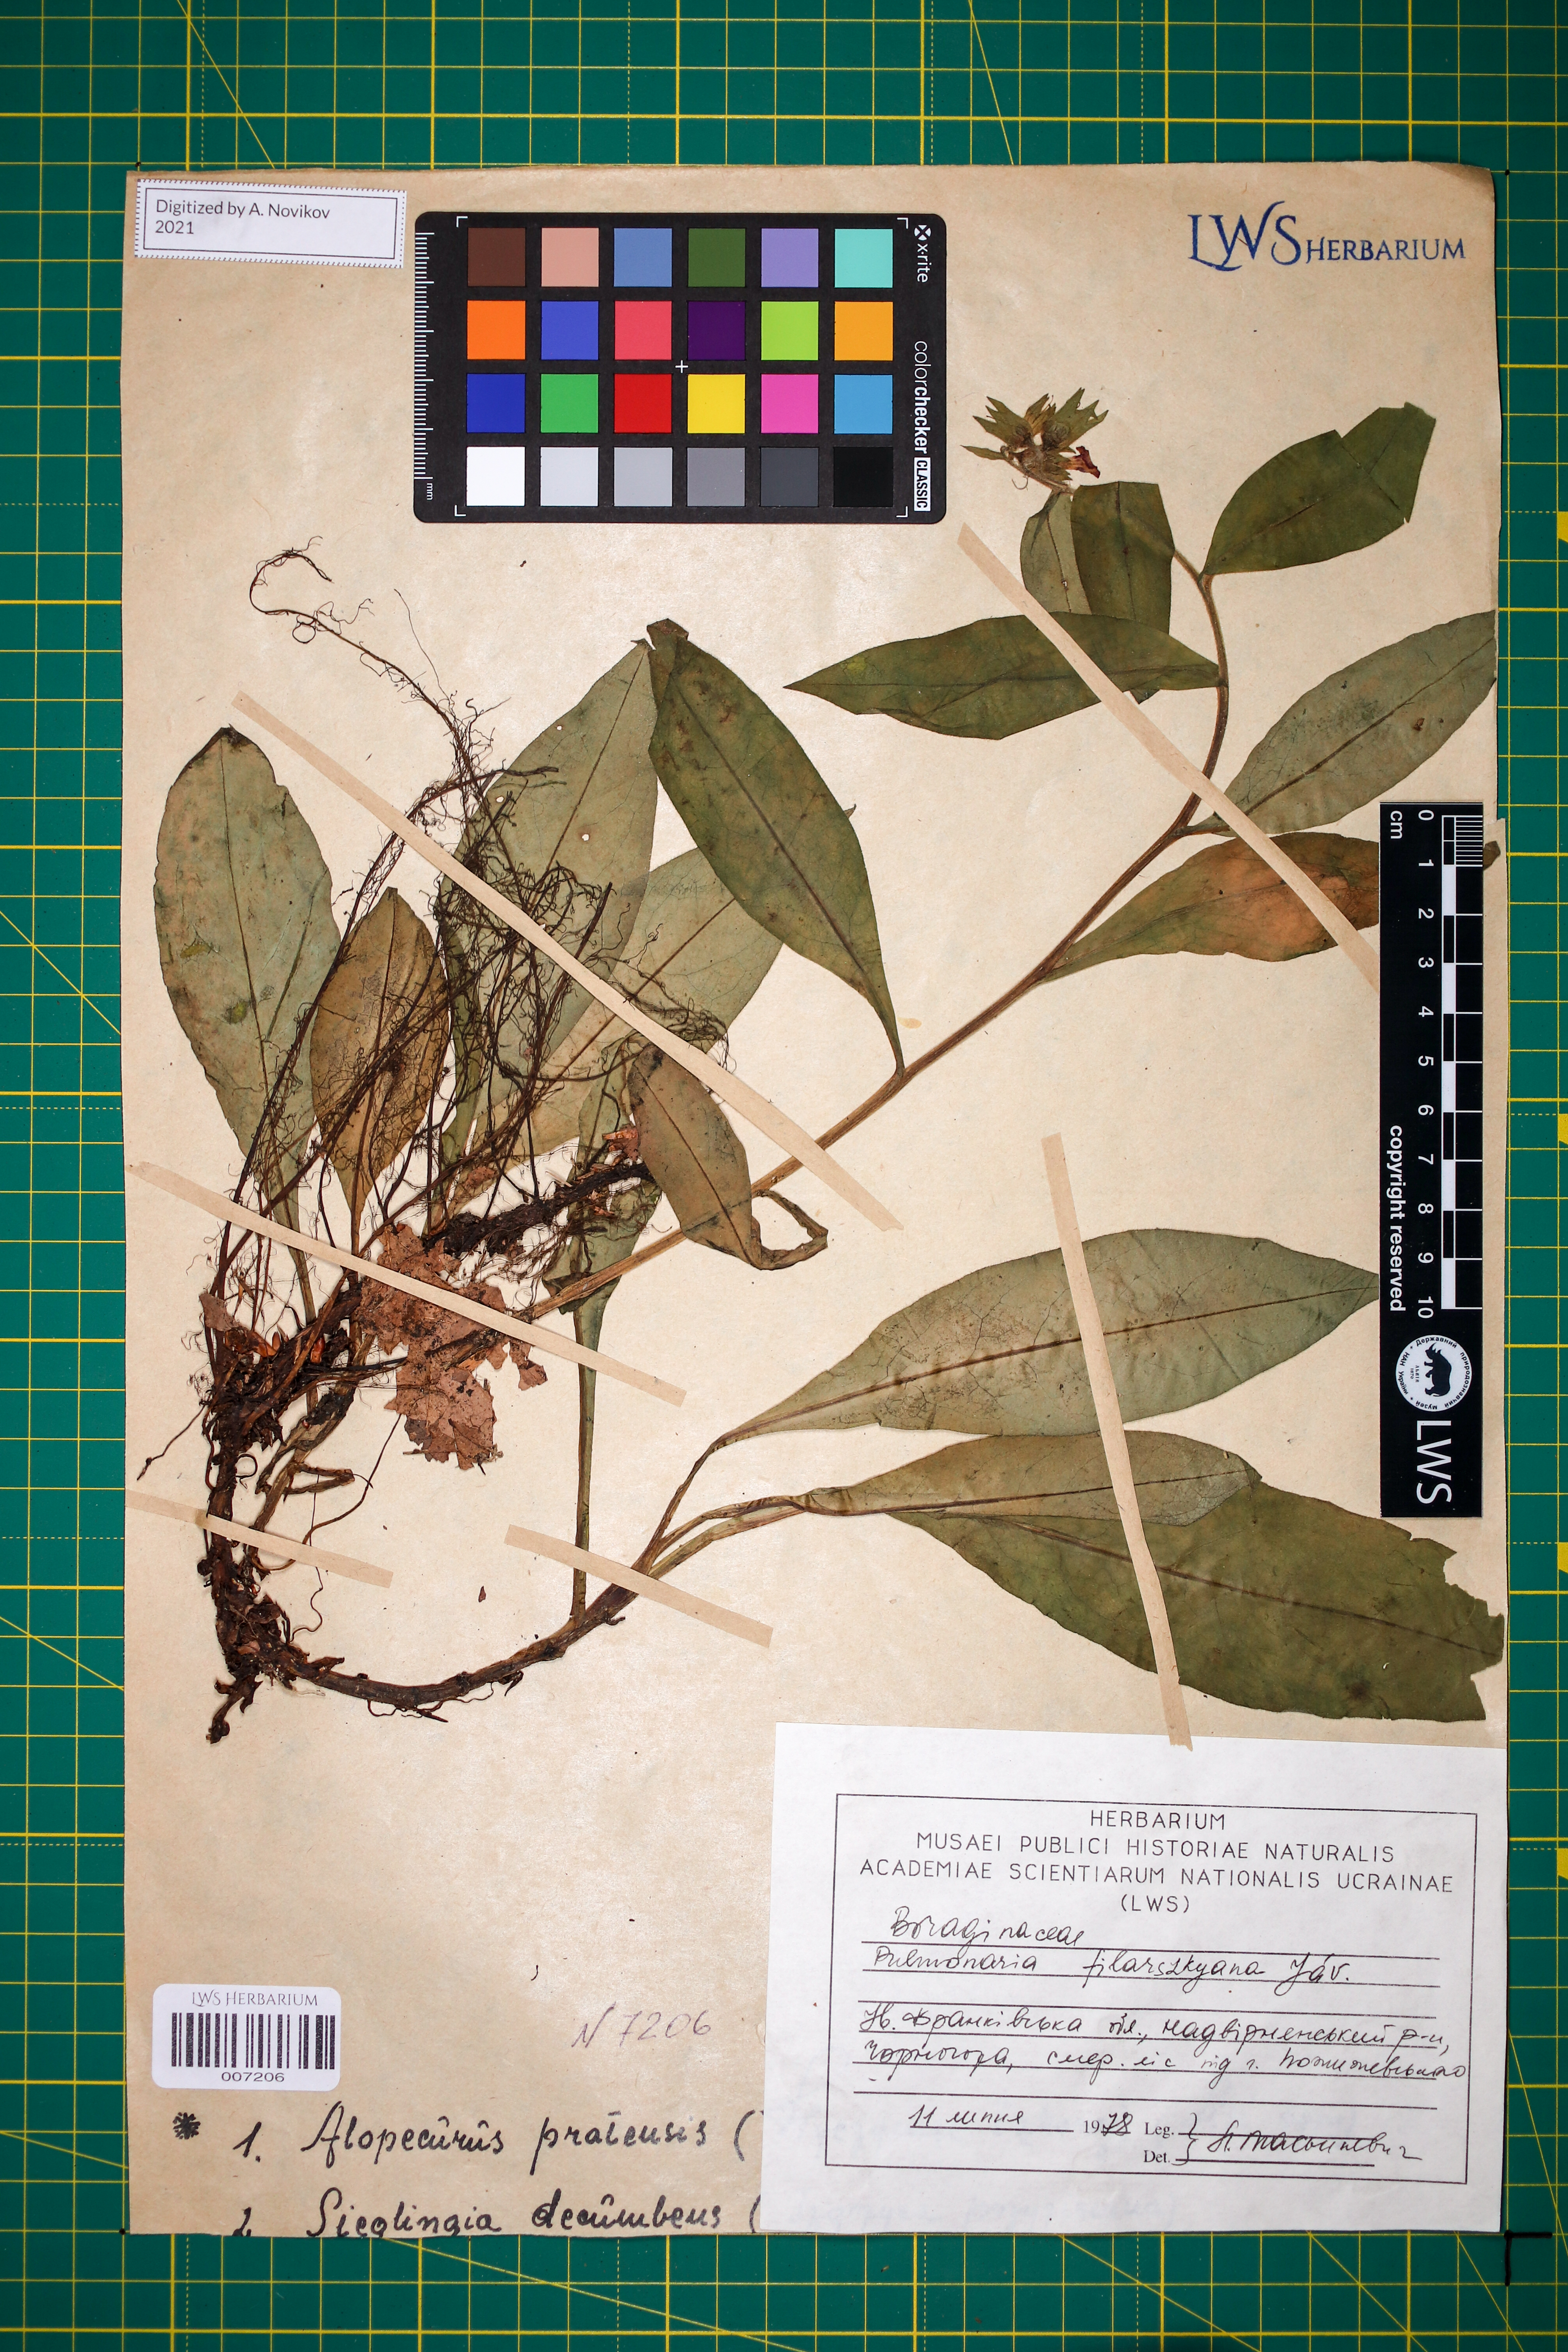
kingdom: Plantae
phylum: Tracheophyta
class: Magnoliopsida
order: Boraginales
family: Boraginaceae
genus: Pulmonaria
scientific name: Pulmonaria filarszkyana
